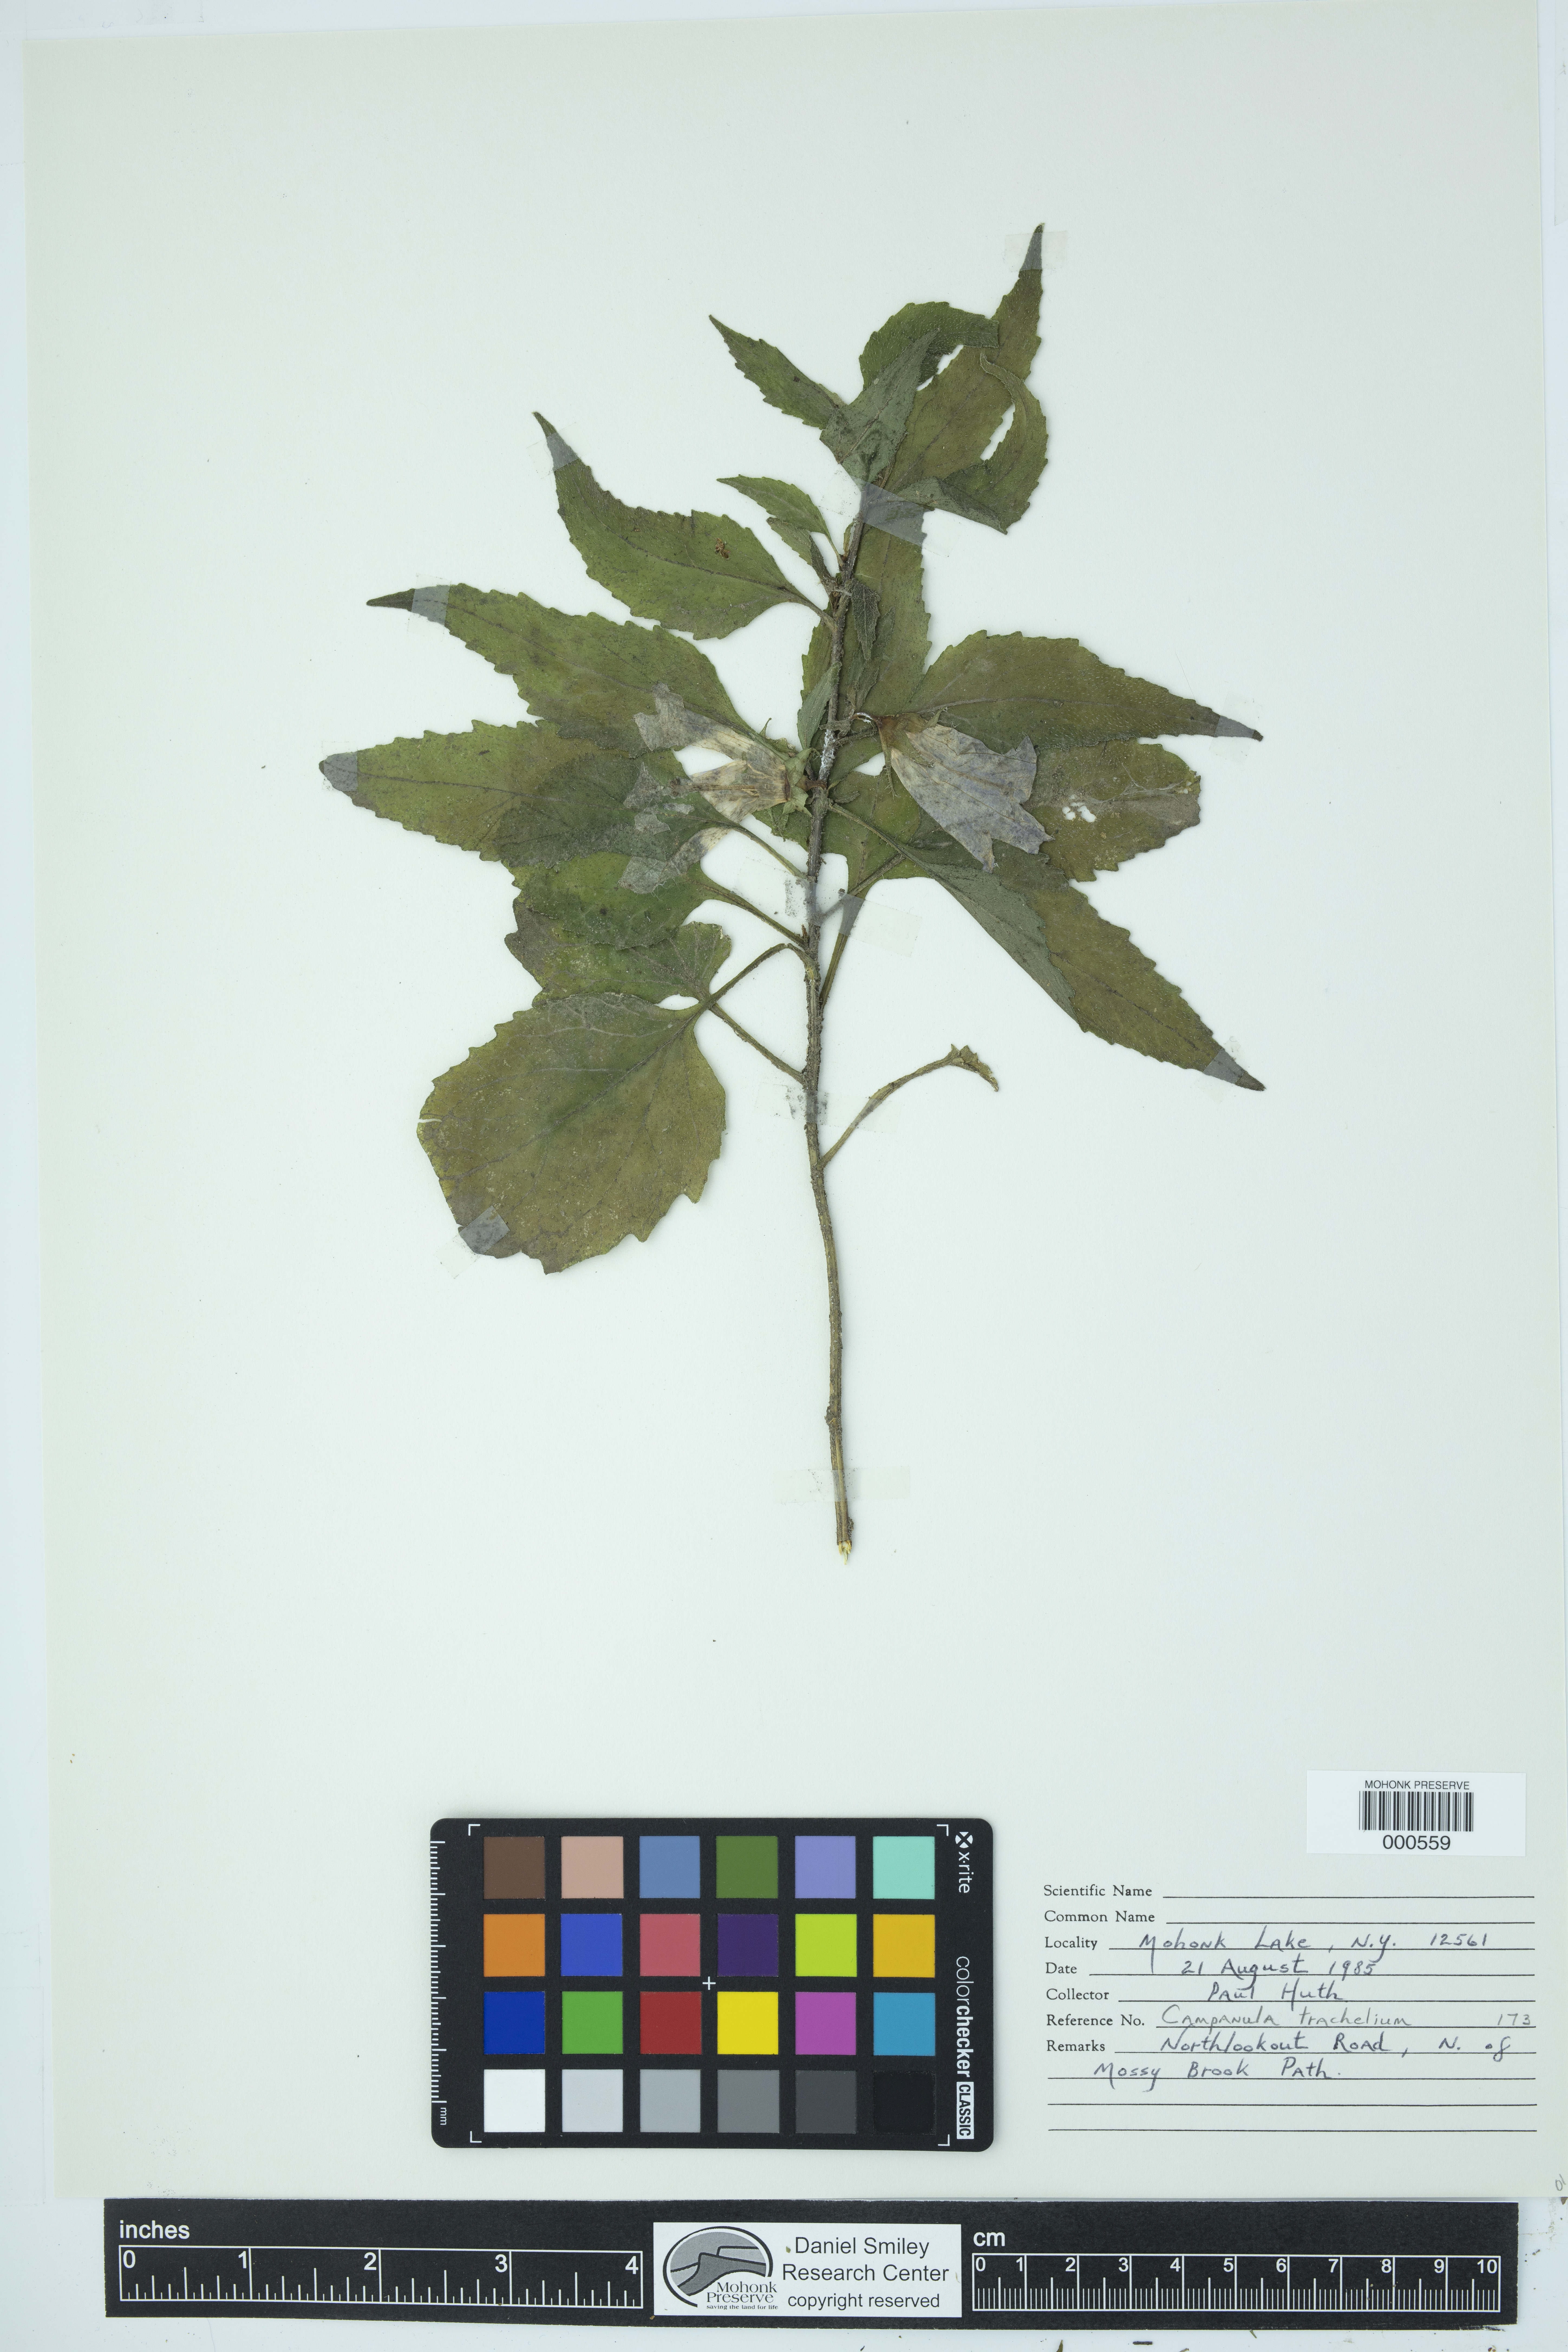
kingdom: Plantae
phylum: Tracheophyta
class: Magnoliopsida
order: Asterales
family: Campanulaceae
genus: Campanula
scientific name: Campanula trachelium
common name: Nettle-leaved bellflower
